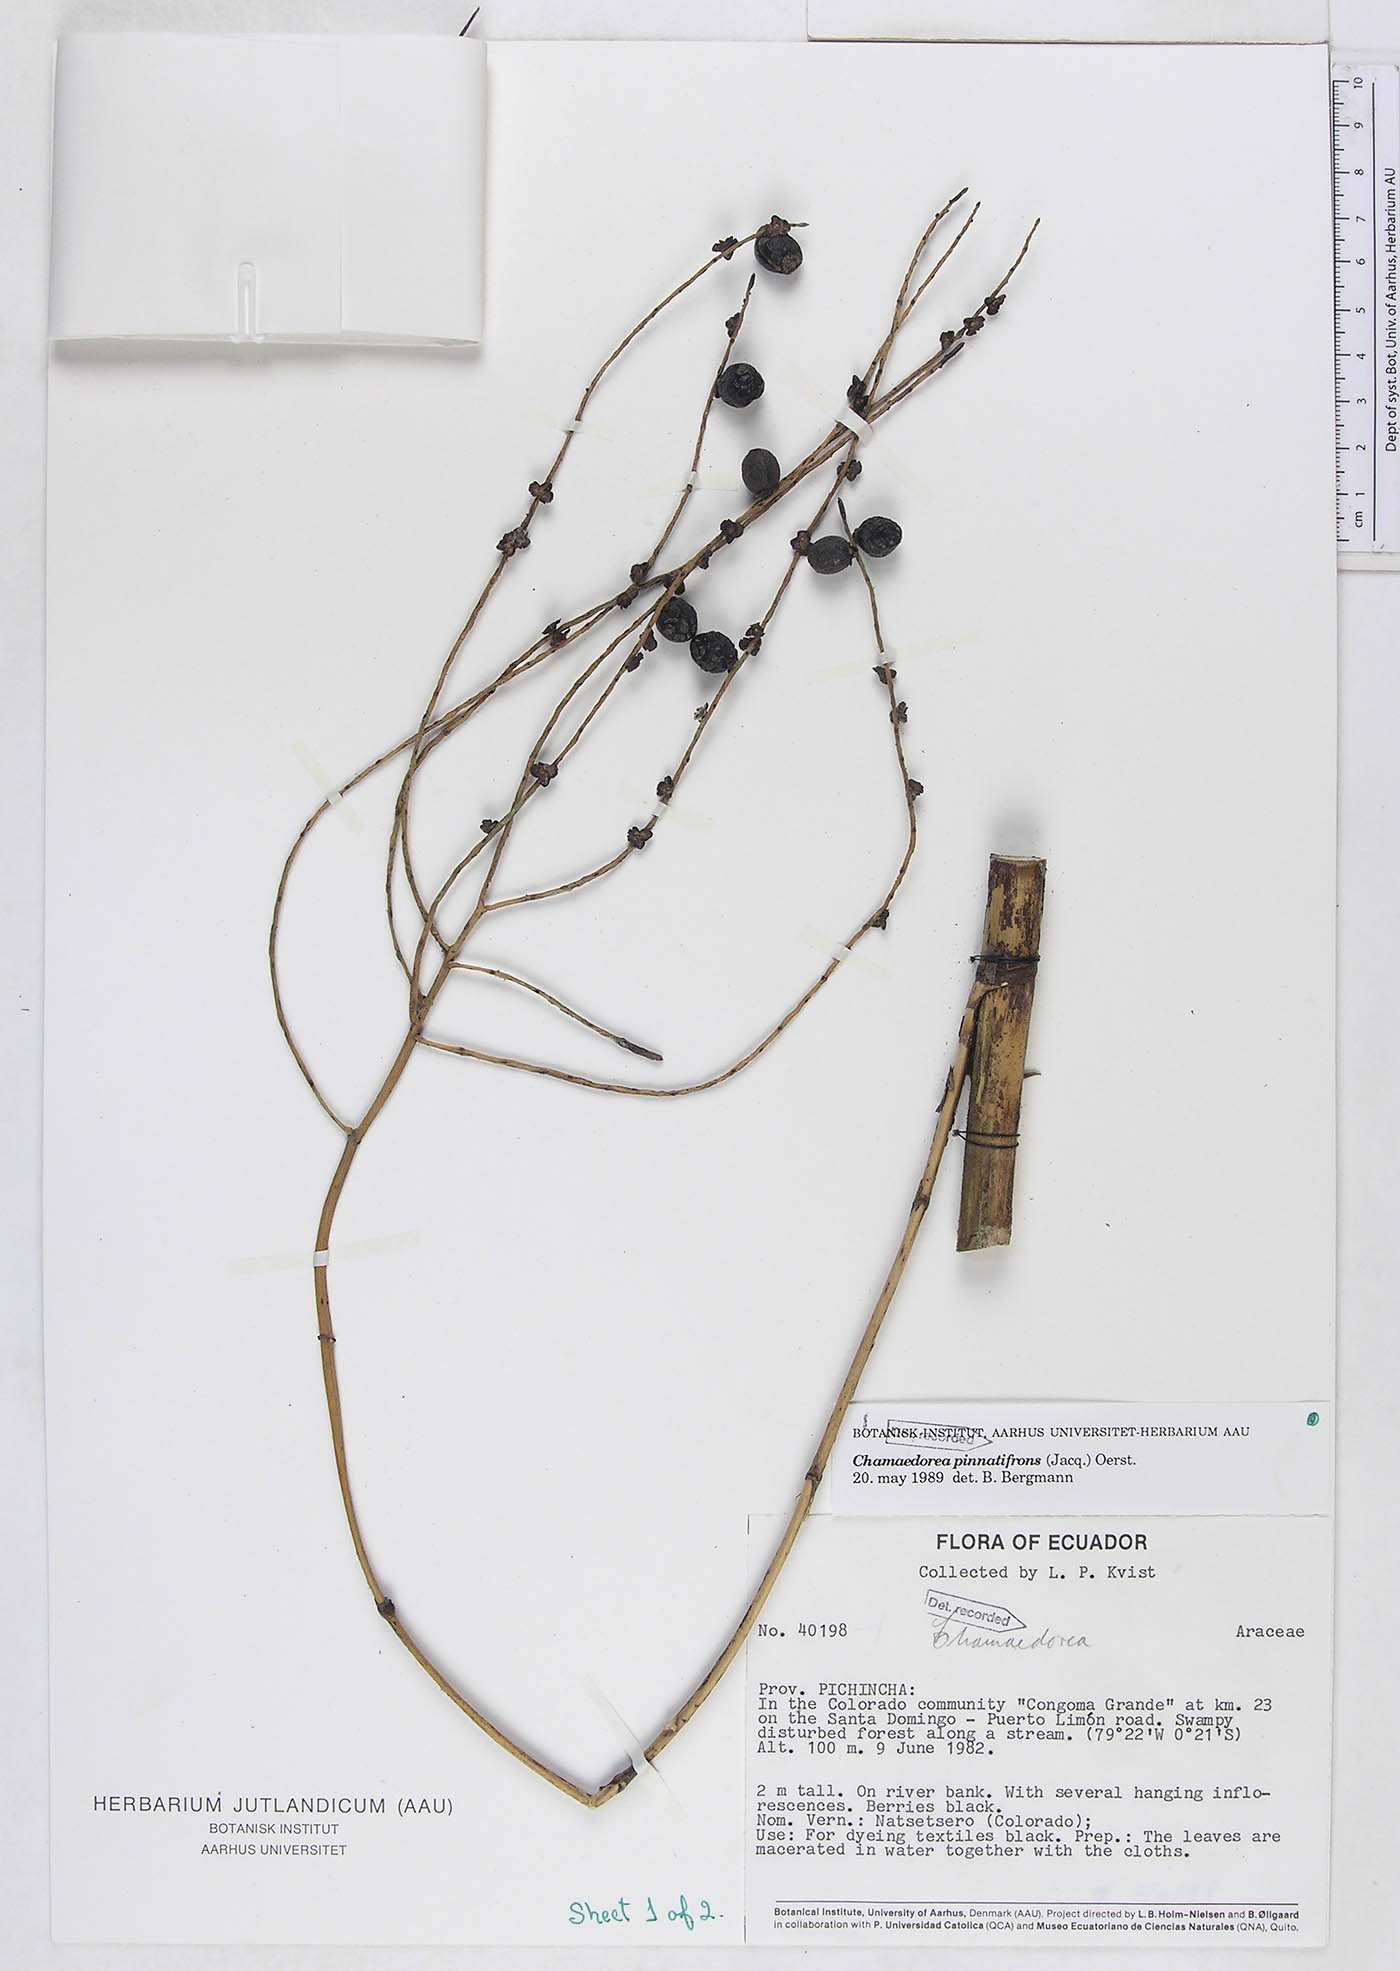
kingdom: Plantae
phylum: Tracheophyta
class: Liliopsida
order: Arecales
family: Arecaceae
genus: Chamaedorea
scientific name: Chamaedorea pinnatifrons
